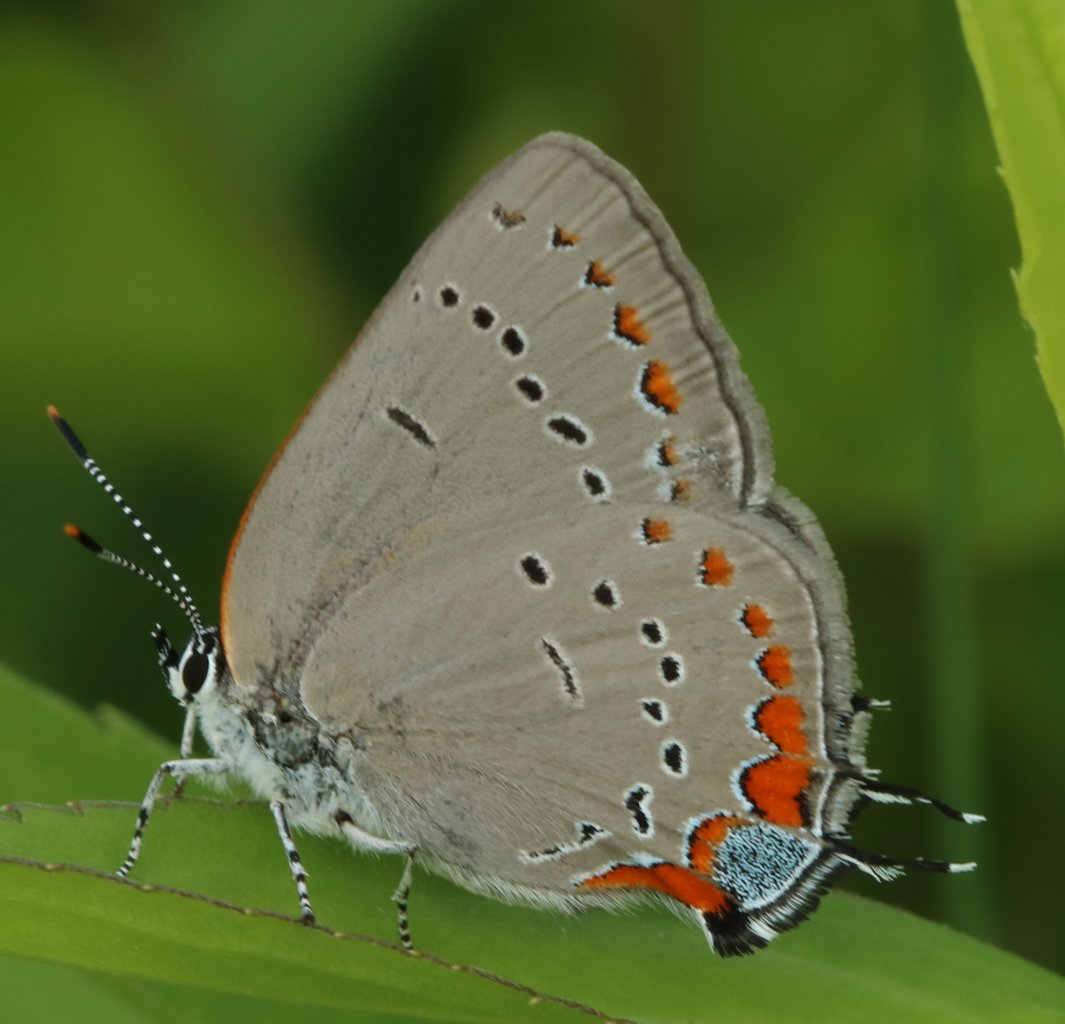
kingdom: Animalia
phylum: Arthropoda
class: Insecta
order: Lepidoptera
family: Lycaenidae
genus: Strymon
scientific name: Strymon acadica
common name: Acadian Hairstreak
